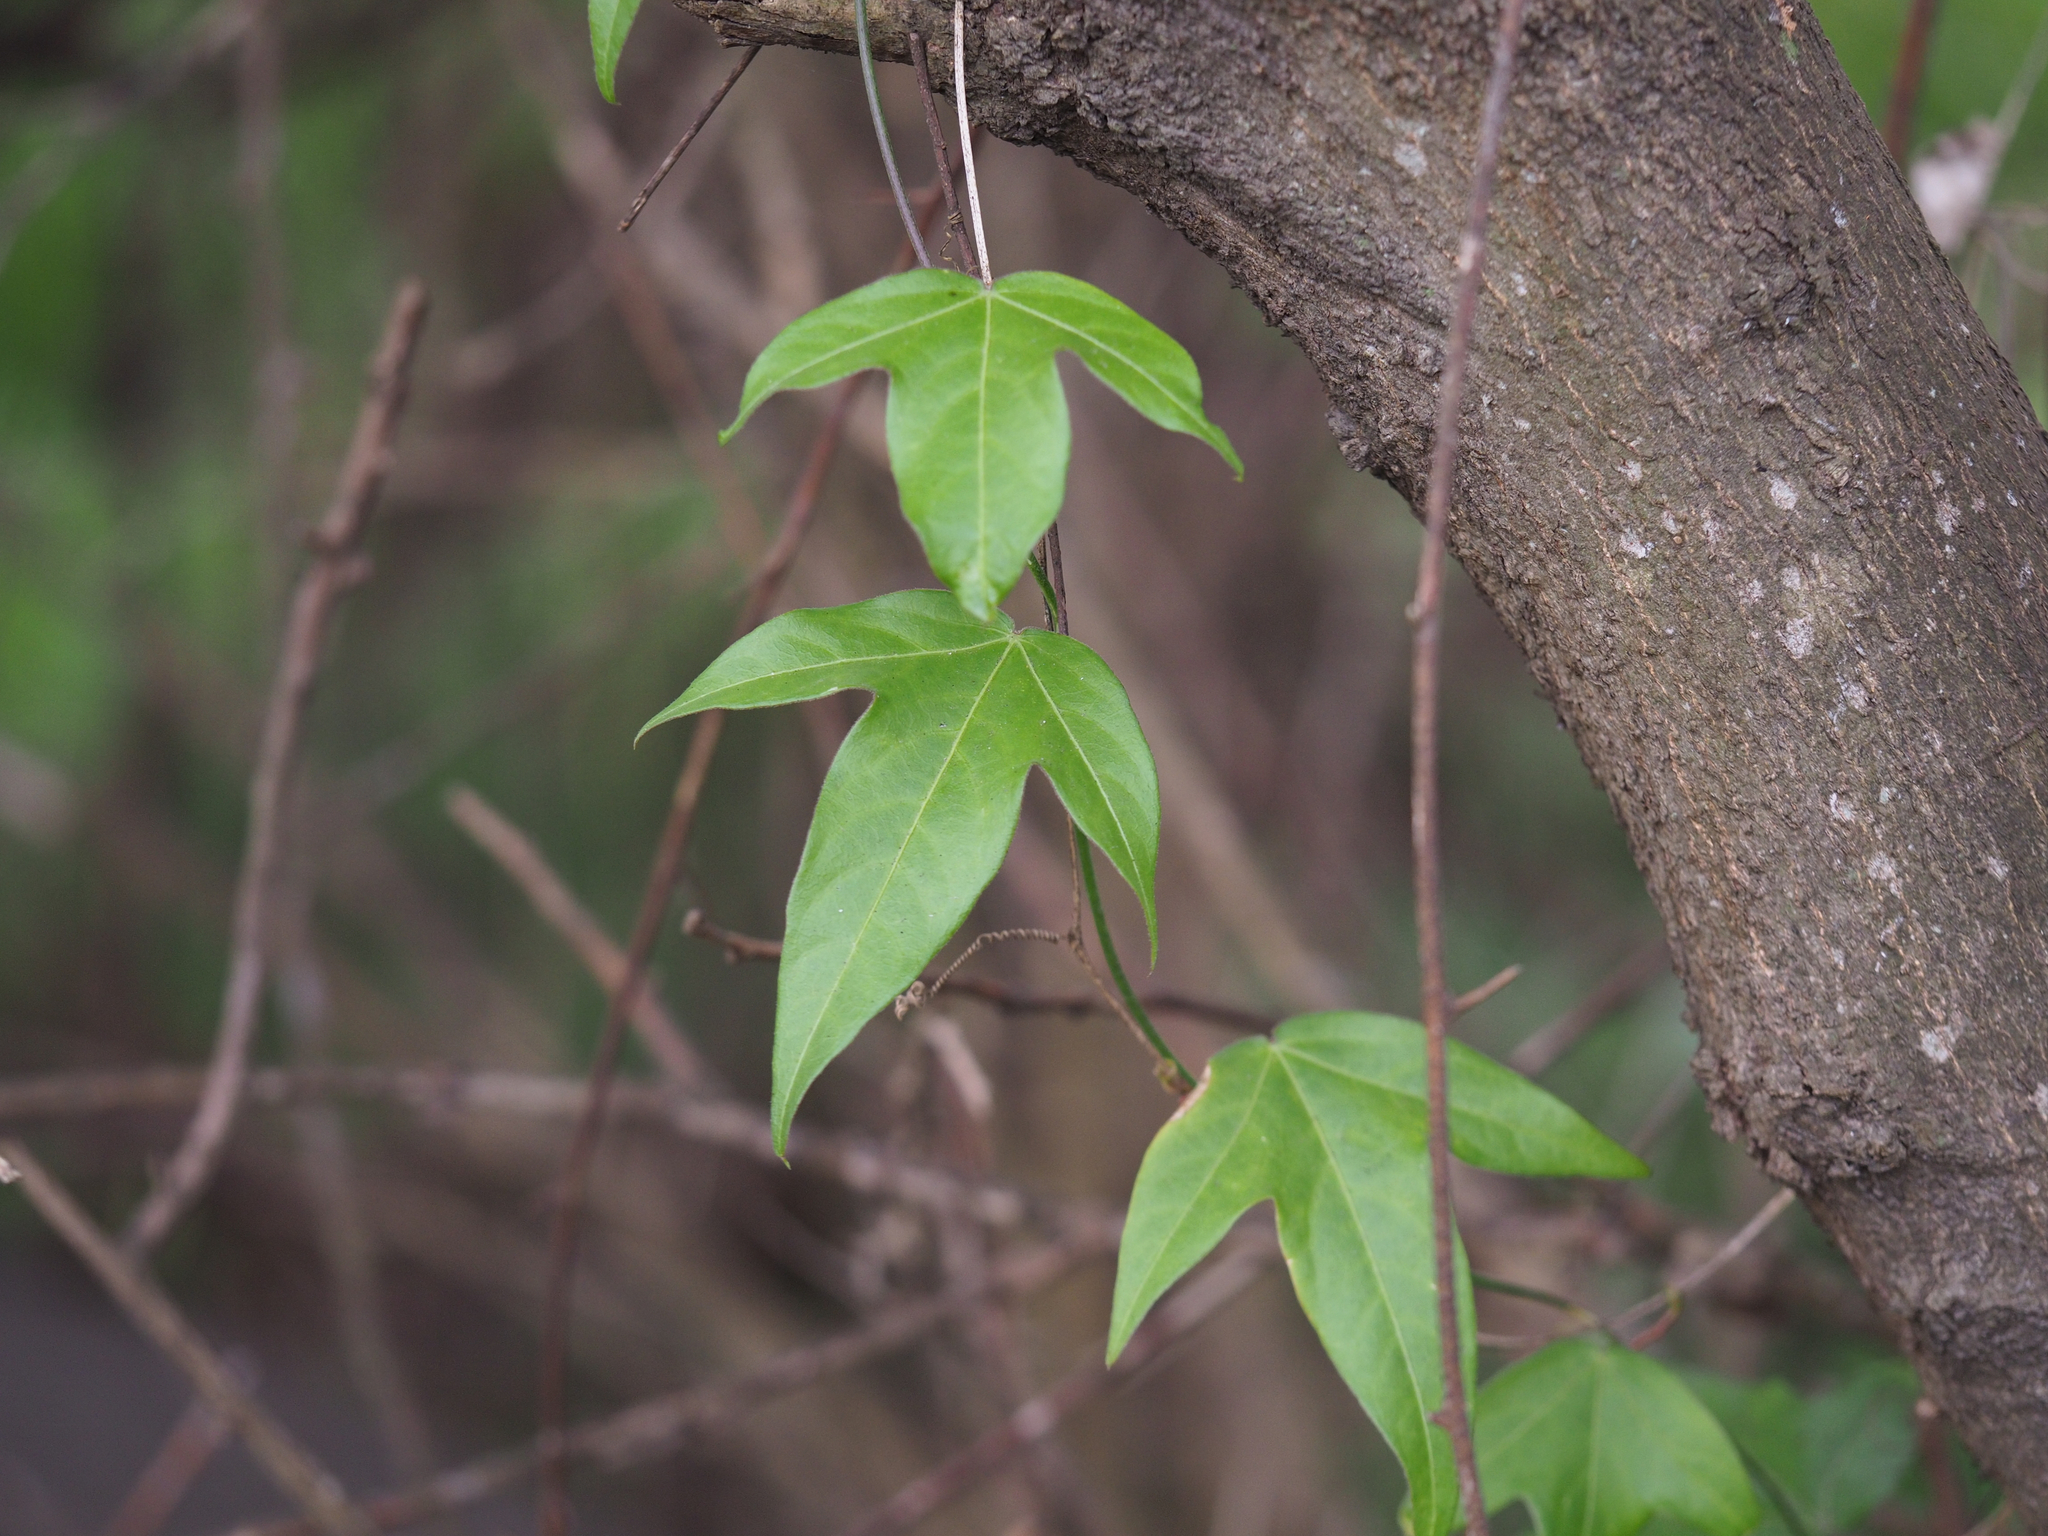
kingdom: Plantae
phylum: Tracheophyta
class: Magnoliopsida
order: Malpighiales
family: Passifloraceae
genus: Passiflora
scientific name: Passiflora suberosa
